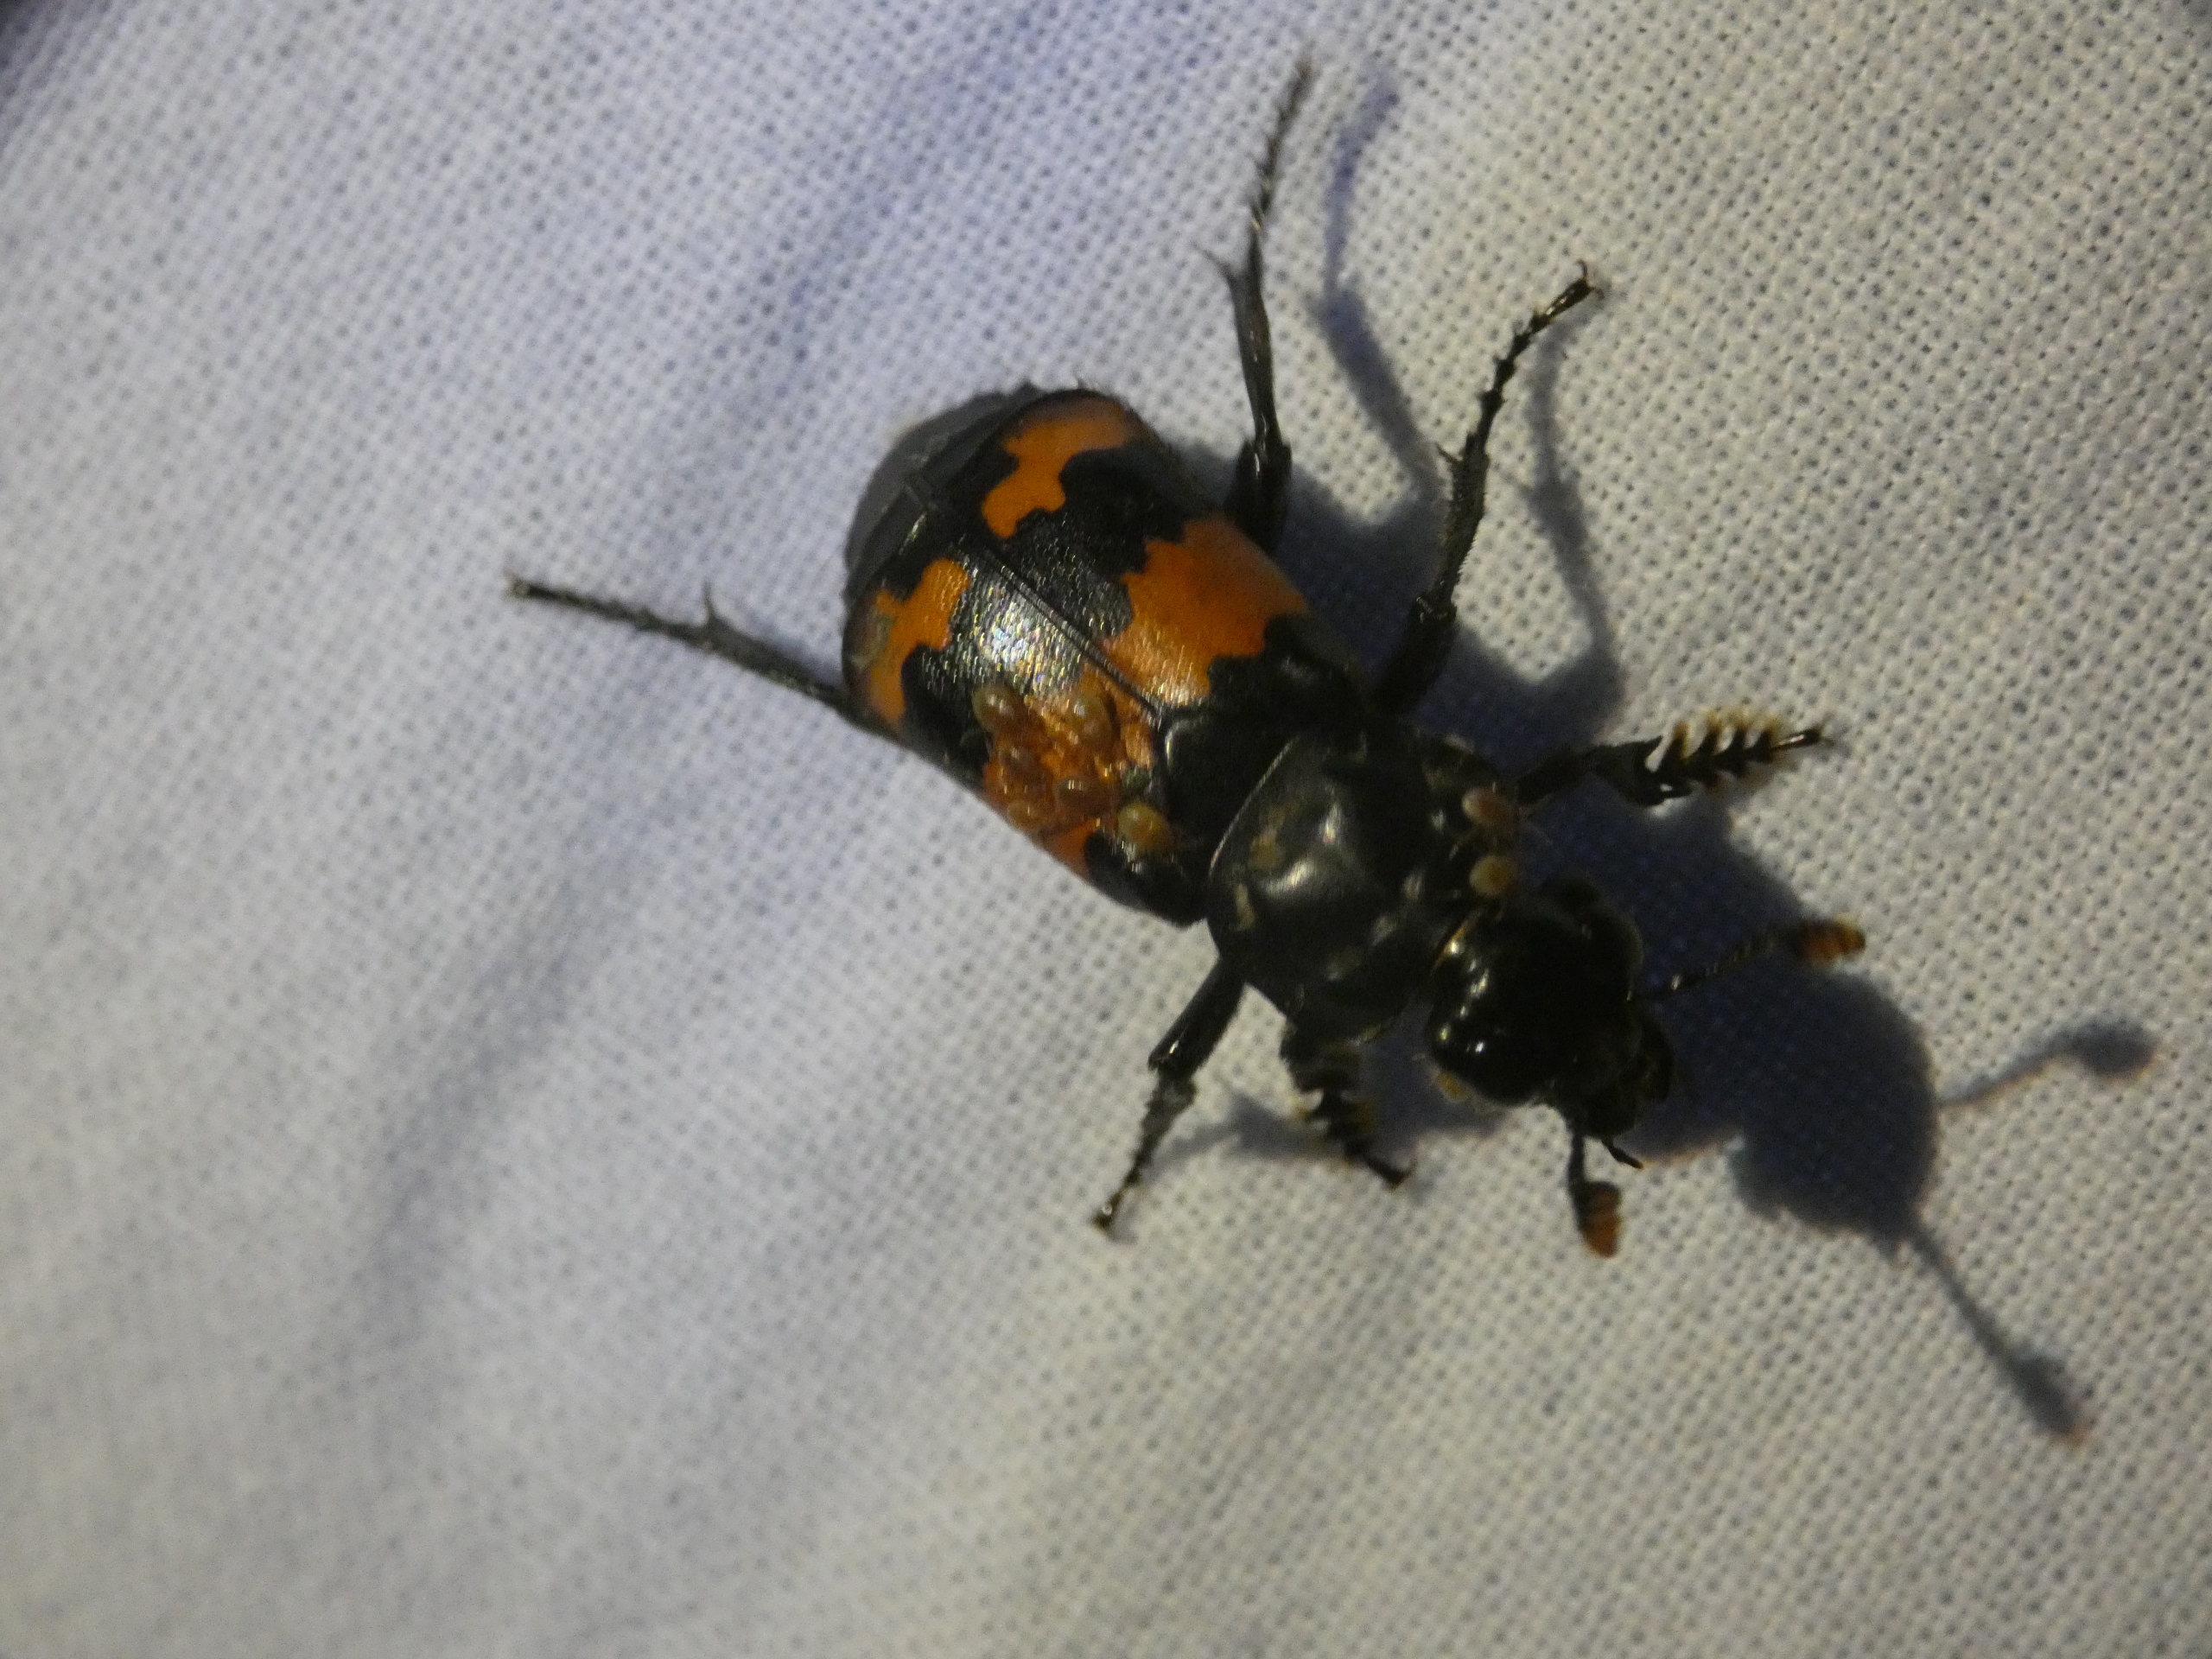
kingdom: Animalia
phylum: Arthropoda
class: Insecta
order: Coleoptera
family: Staphylinidae
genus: Nicrophorus
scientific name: Nicrophorus investigator
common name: Skovådselgraver
